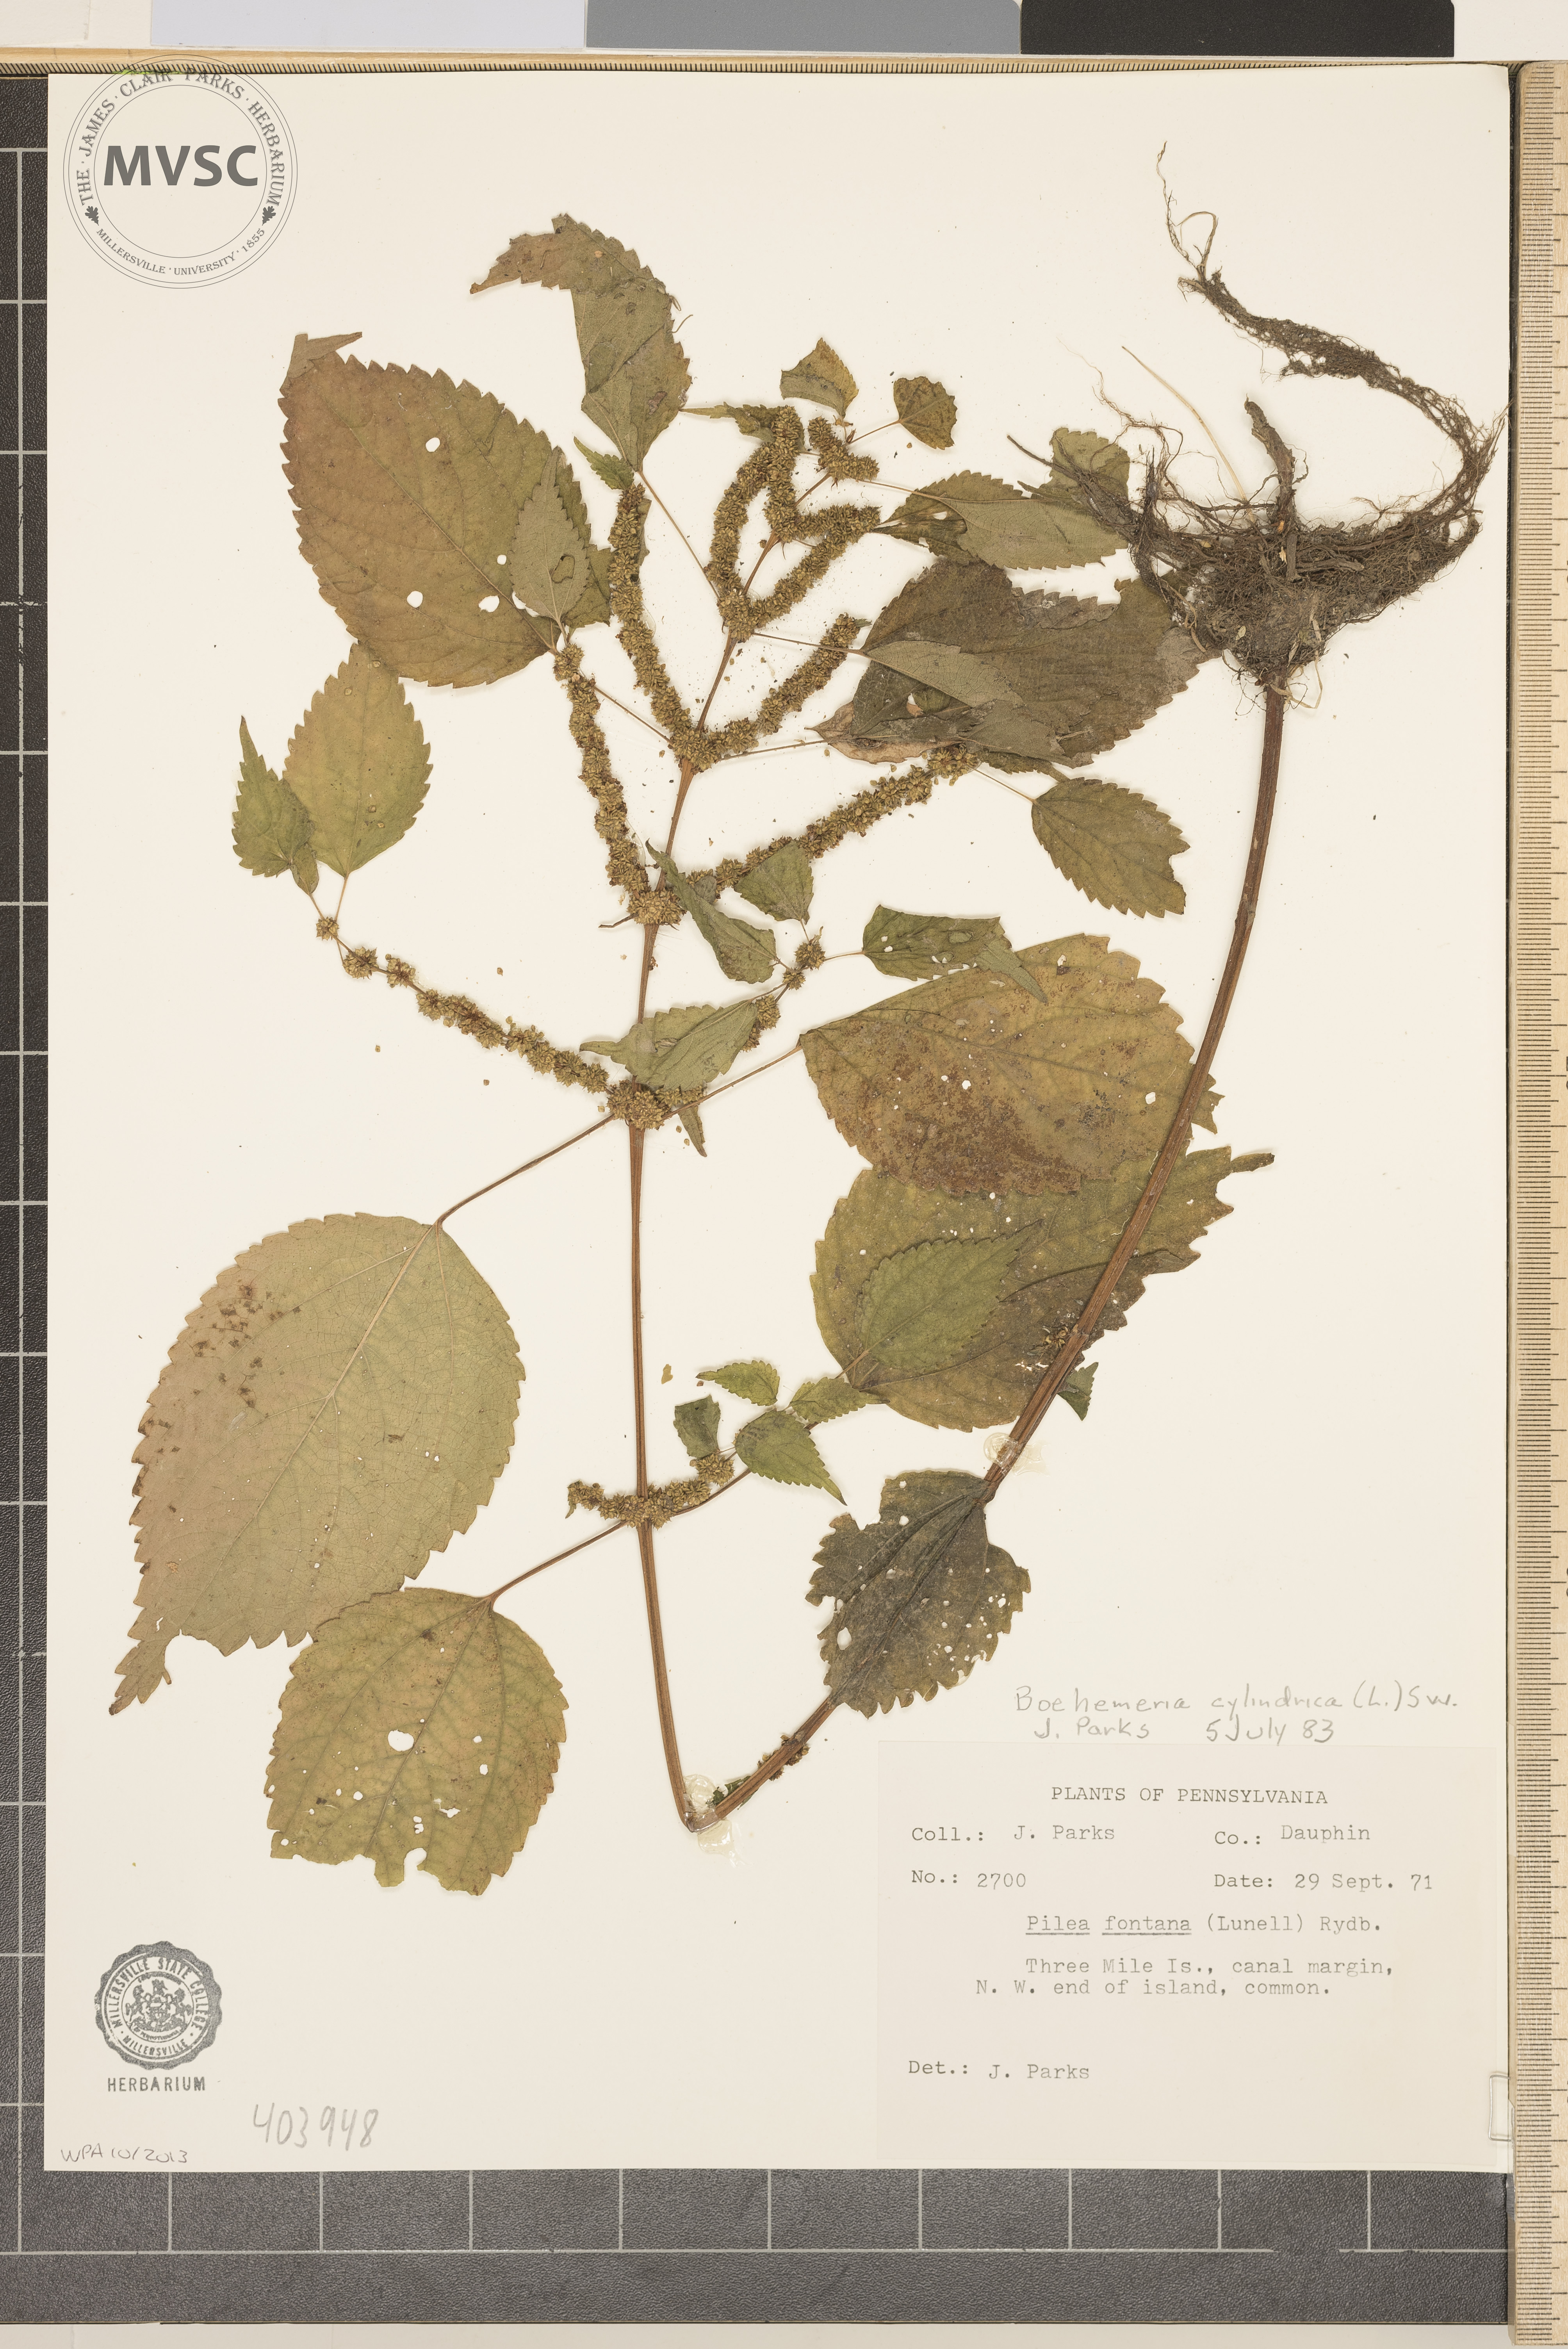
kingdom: Plantae
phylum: Tracheophyta
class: Magnoliopsida
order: Rosales
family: Urticaceae
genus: Boehmeria
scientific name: Boehmeria cylindrica
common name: Bog-hemp
